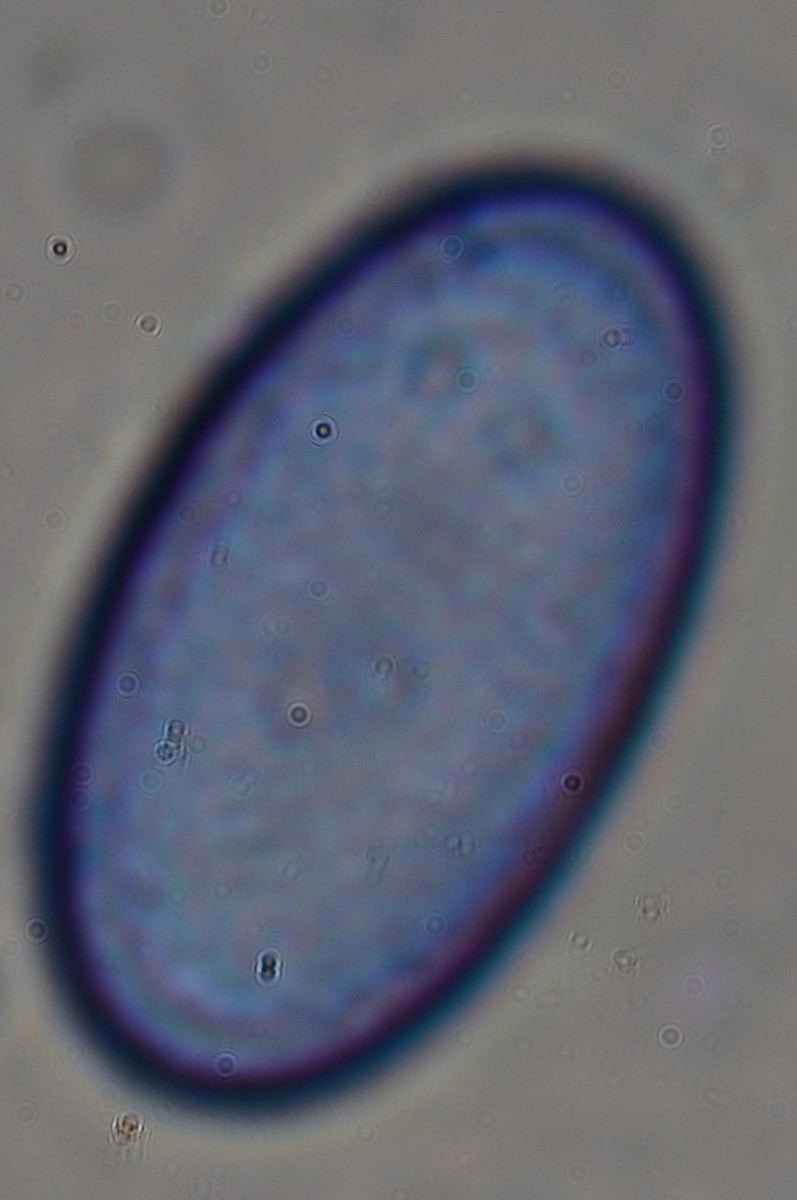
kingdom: Fungi
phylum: Ascomycota
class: Pezizomycetes
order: Pezizales
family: Pezizaceae
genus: Peziza
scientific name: Peziza varia
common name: Ved-bægersvamp
